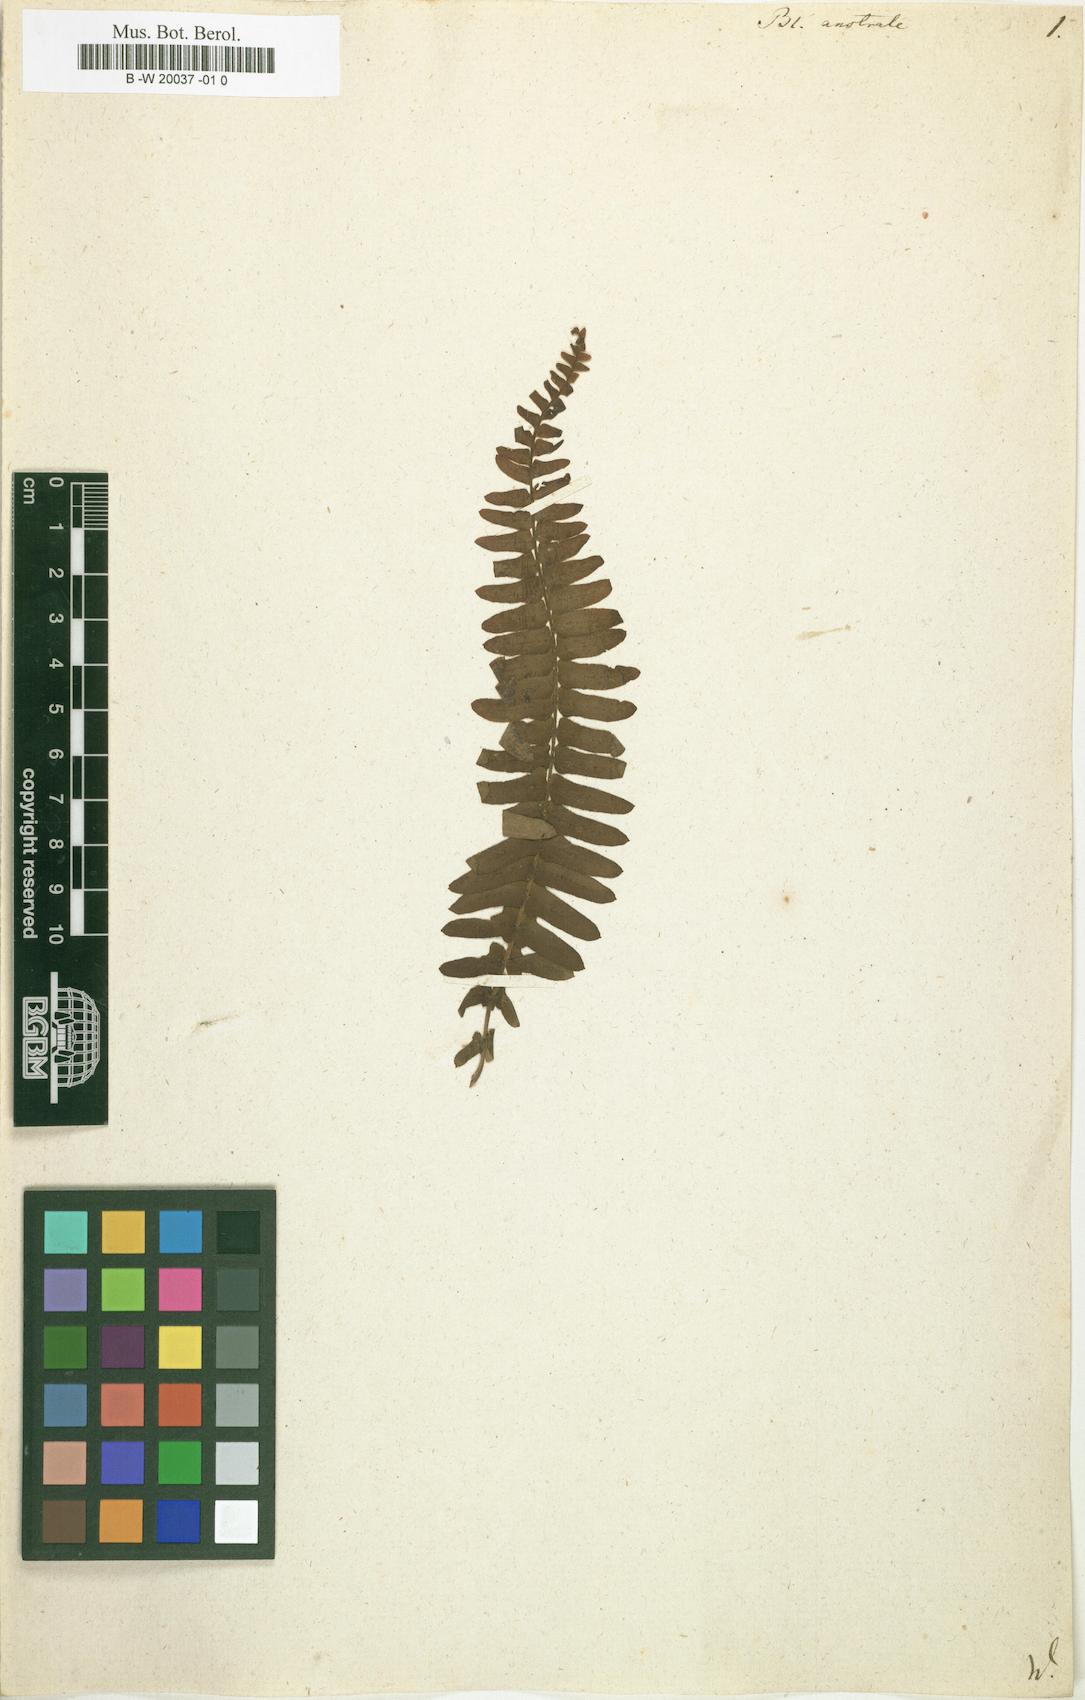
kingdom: Plantae
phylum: Tracheophyta
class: Polypodiopsida
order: Polypodiales
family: Blechnaceae
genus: Blechnum
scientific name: Blechnum australe
